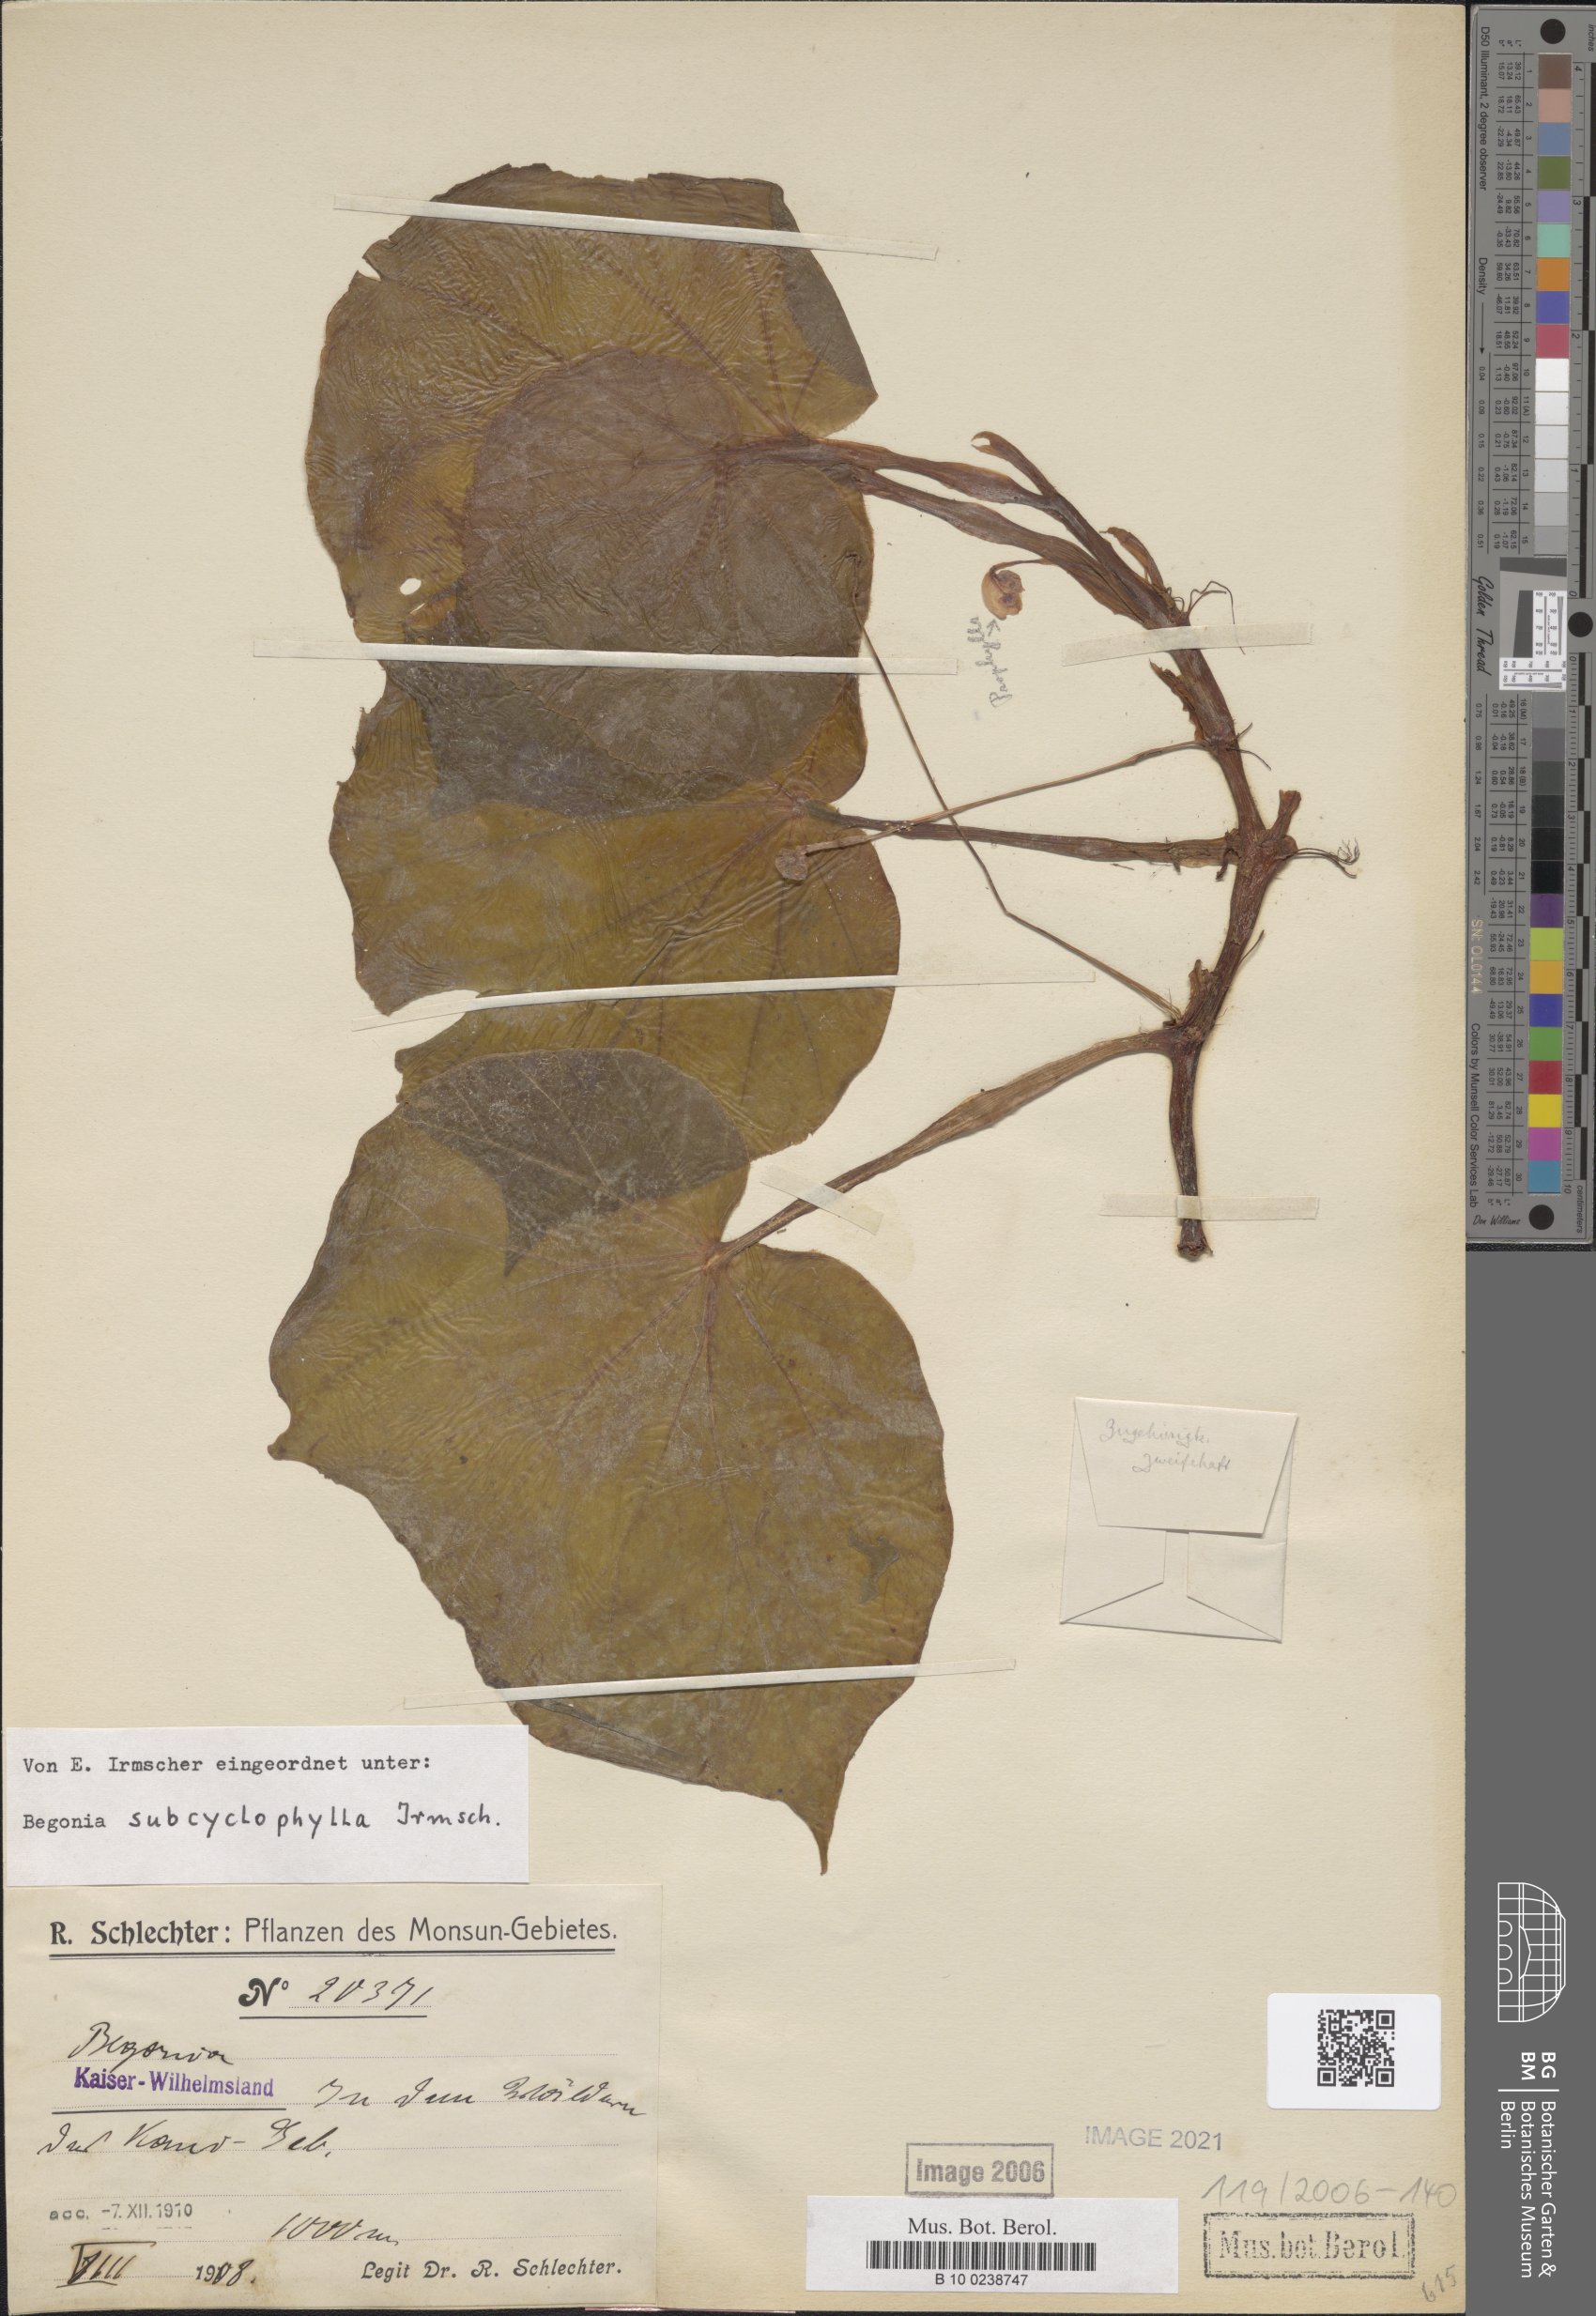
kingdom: Plantae
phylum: Tracheophyta
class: Magnoliopsida
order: Cucurbitales
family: Begoniaceae
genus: Begonia
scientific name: Begonia subcyclophylla
